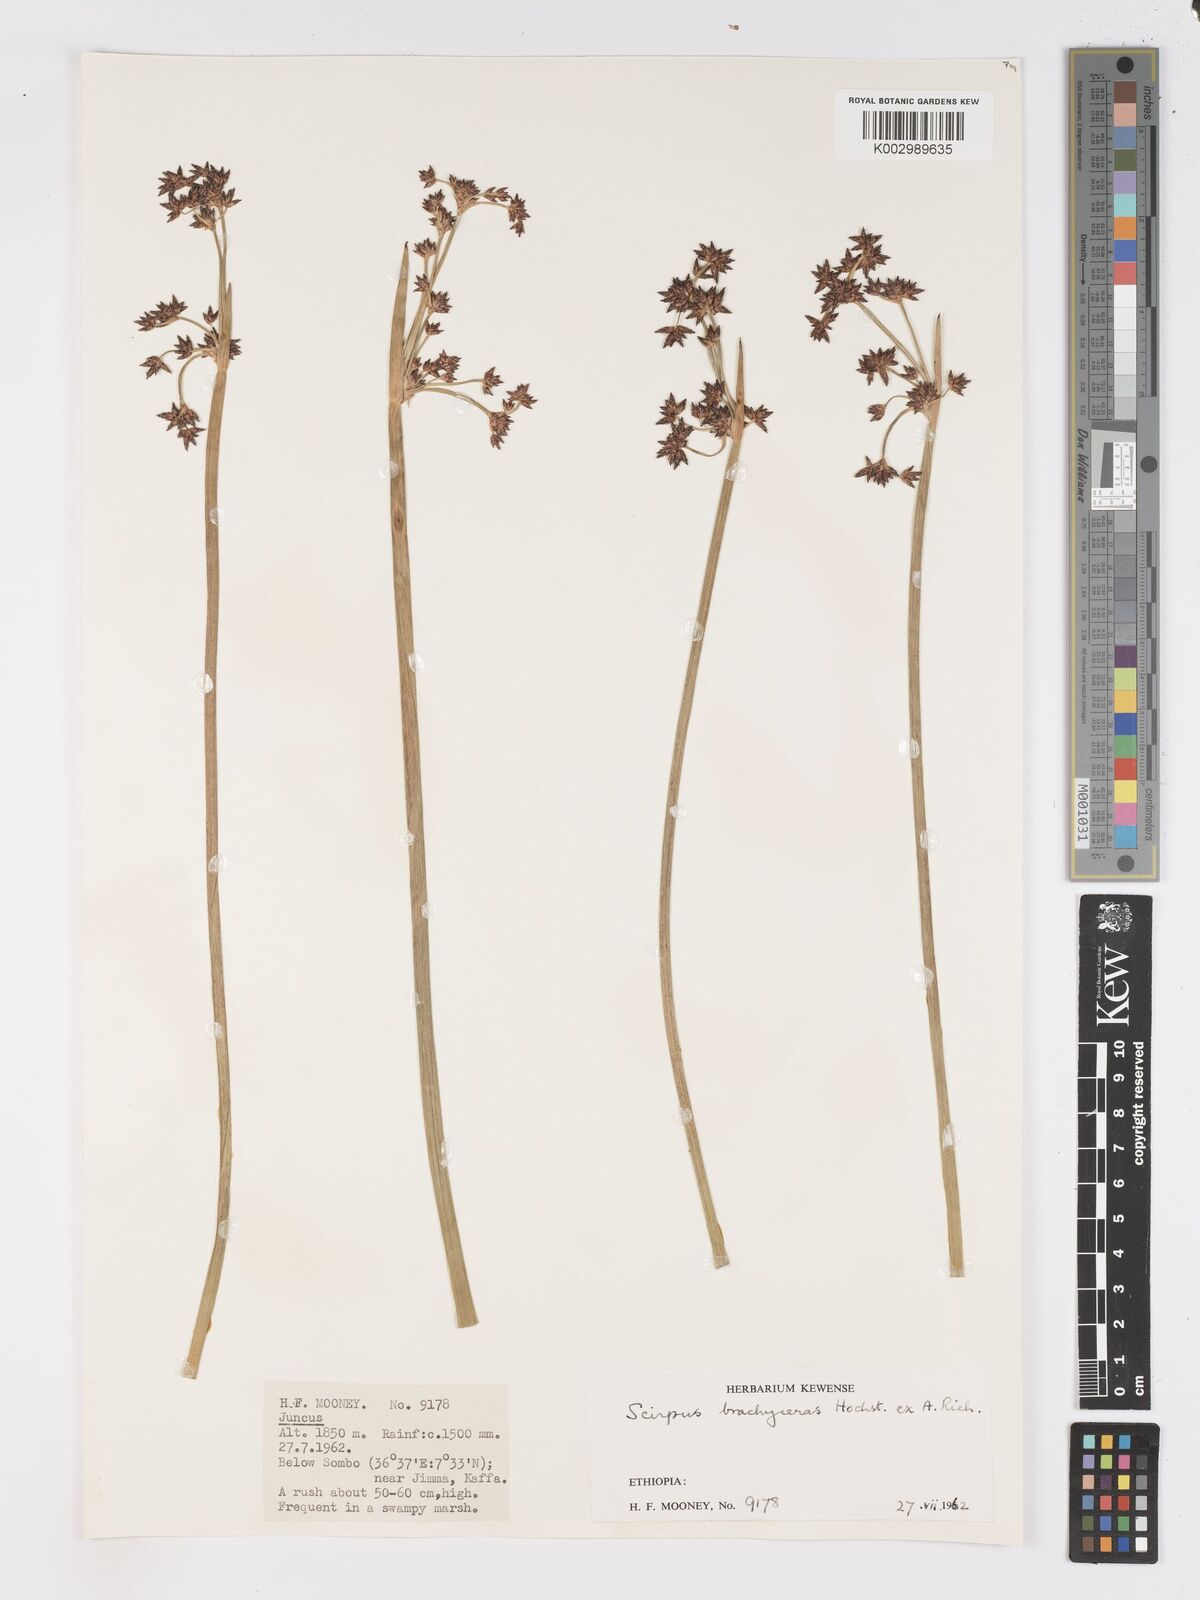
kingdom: Plantae
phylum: Tracheophyta
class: Liliopsida
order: Poales
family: Cyperaceae
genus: Schoenoplectiella
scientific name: Schoenoplectiella brachyceras
